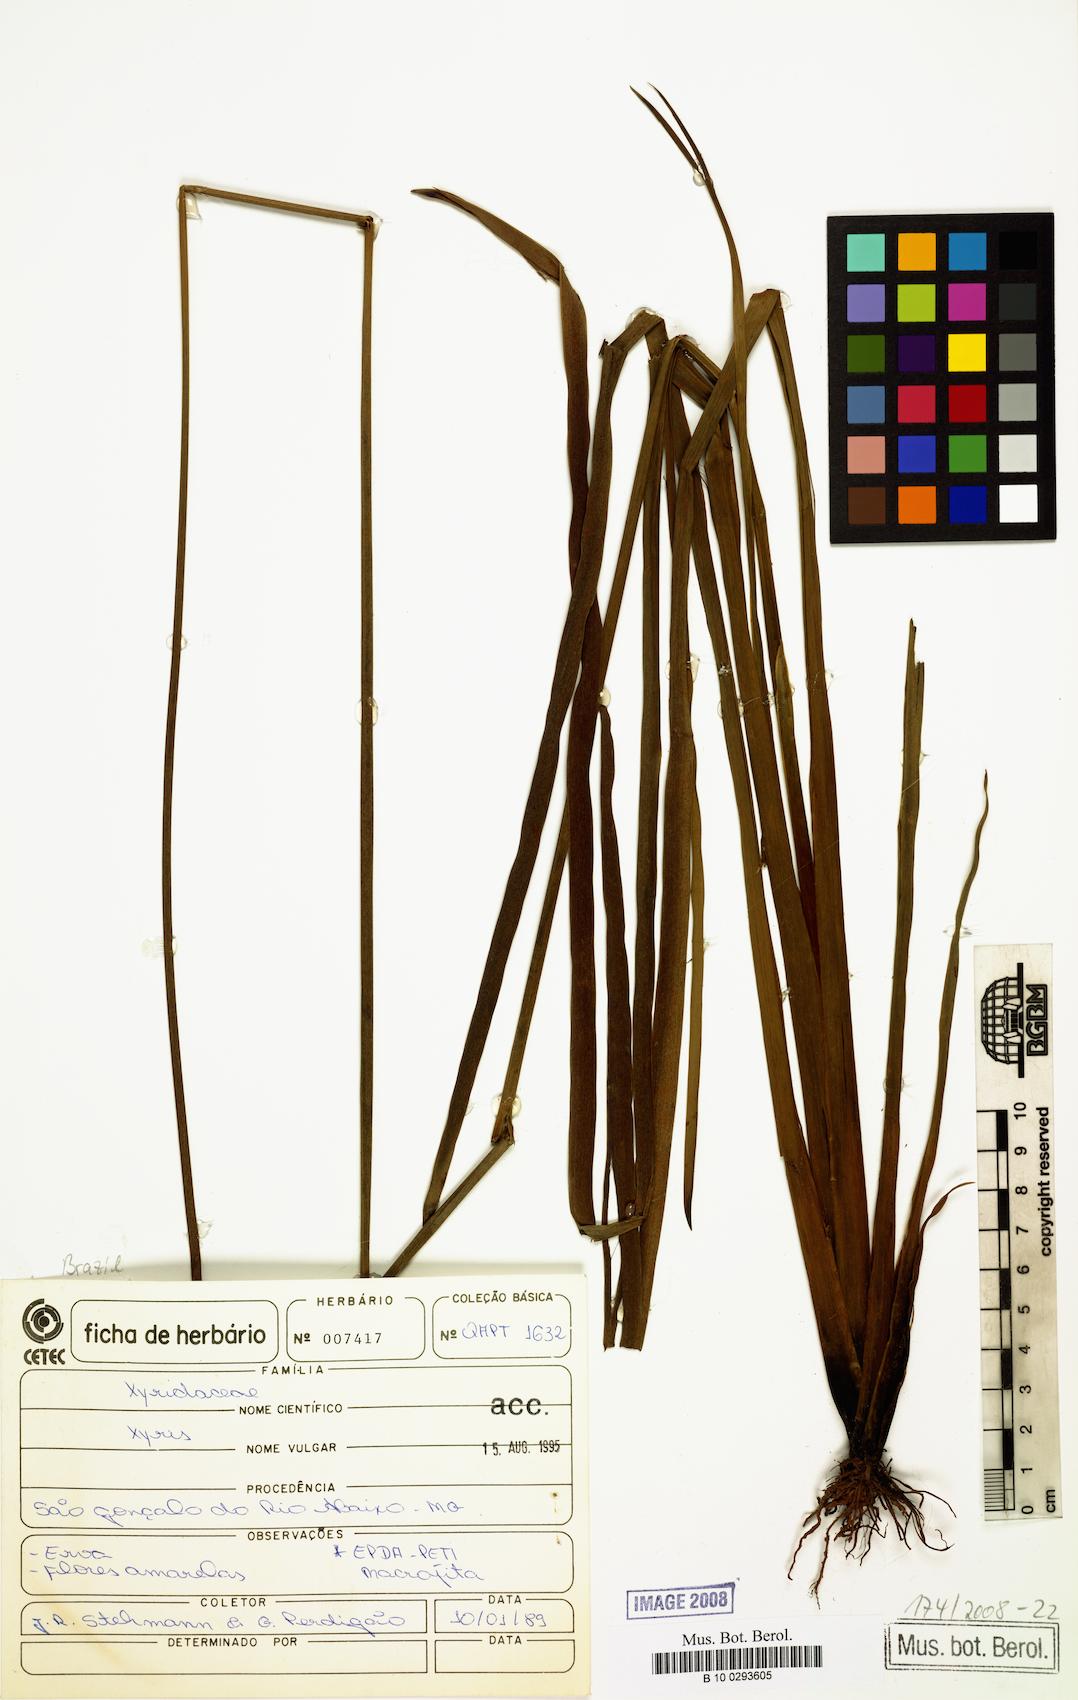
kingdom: Plantae
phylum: Tracheophyta
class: Liliopsida
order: Poales
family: Xyridaceae
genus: Xyris
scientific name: Xyris
